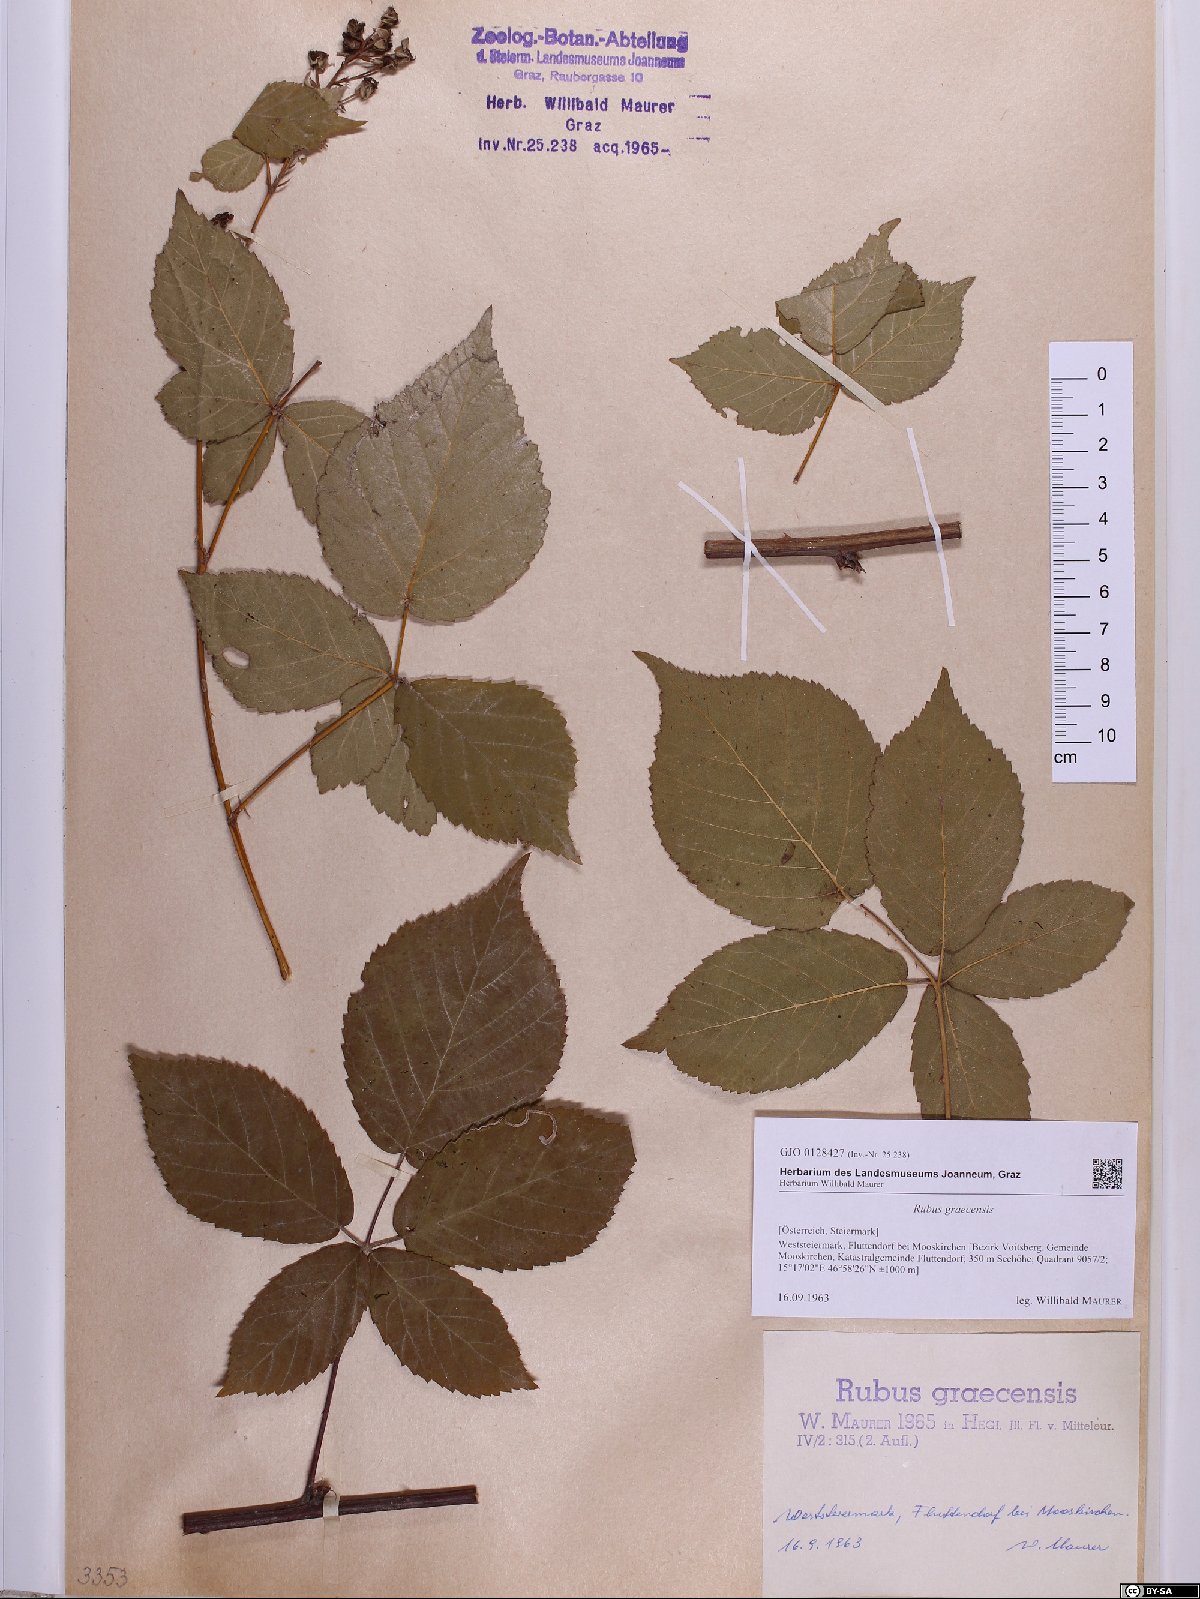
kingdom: Plantae
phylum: Tracheophyta
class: Magnoliopsida
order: Rosales
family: Rosaceae
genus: Rubus
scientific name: Rubus graecensis
